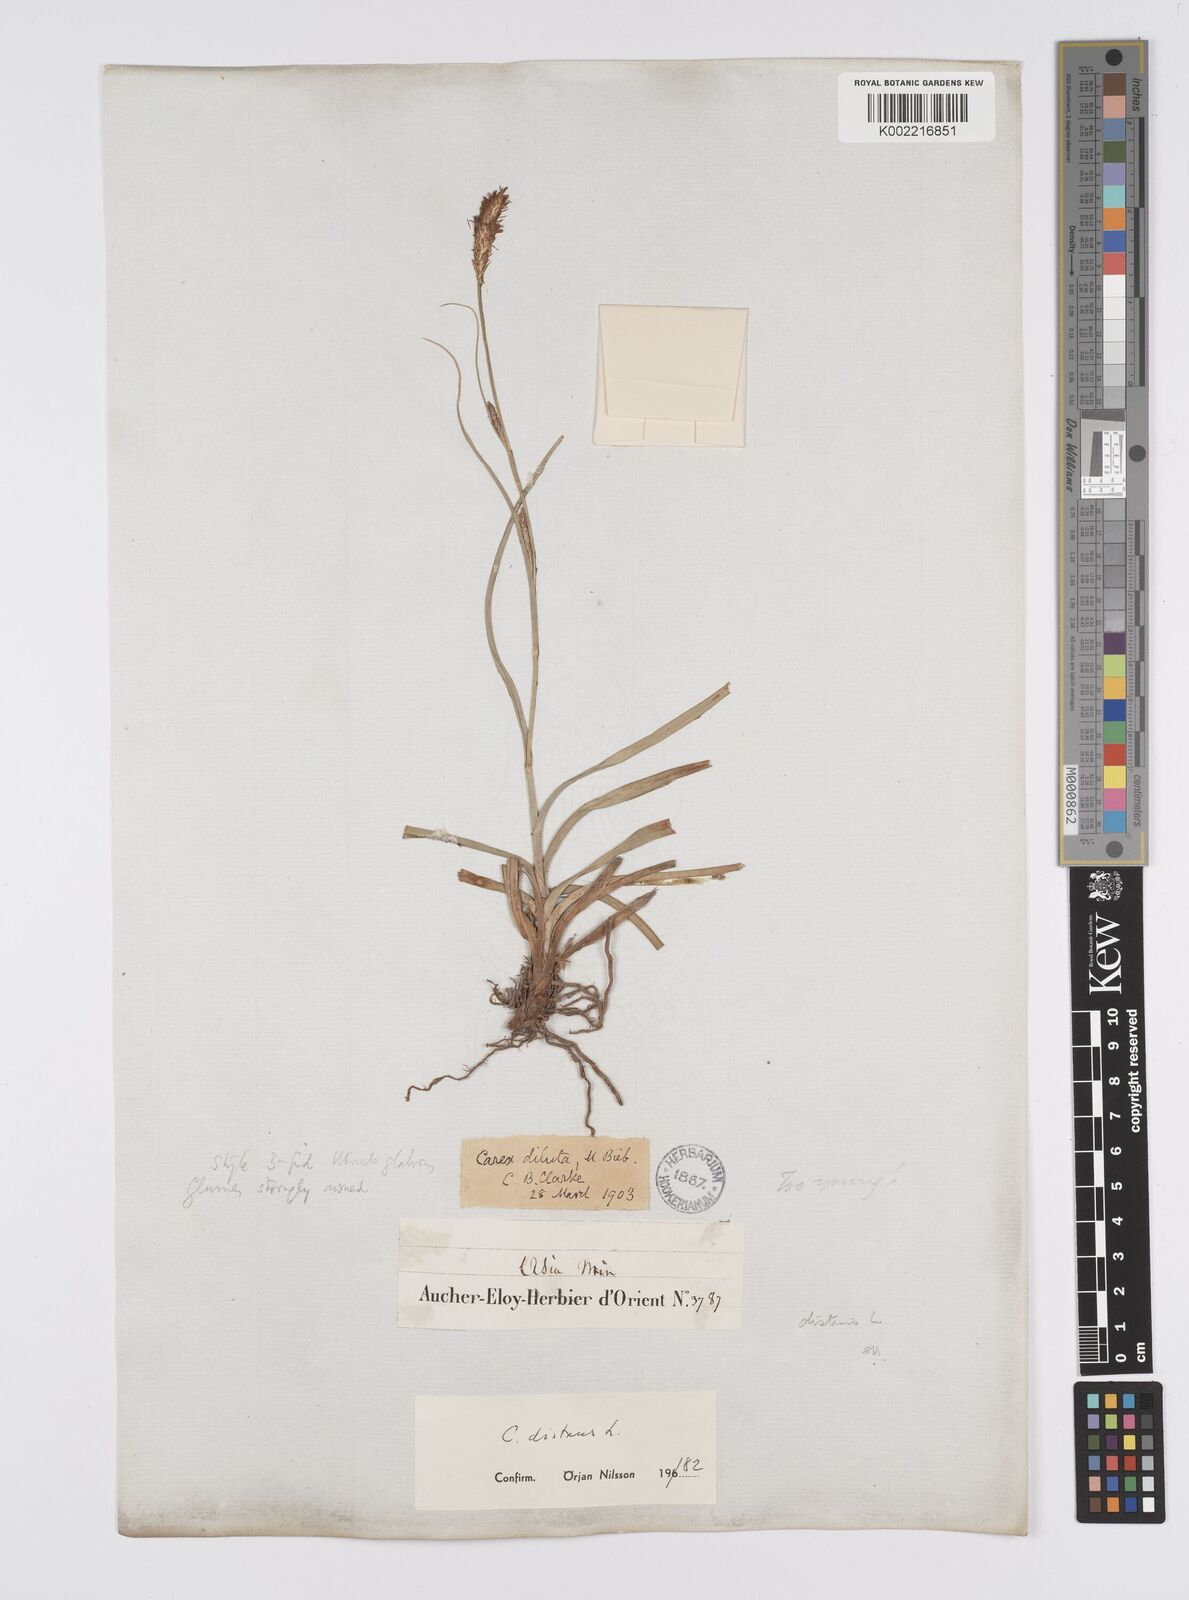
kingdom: Plantae
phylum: Tracheophyta
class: Liliopsida
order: Poales
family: Cyperaceae
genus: Carex
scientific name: Carex distans
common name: Distant sedge
